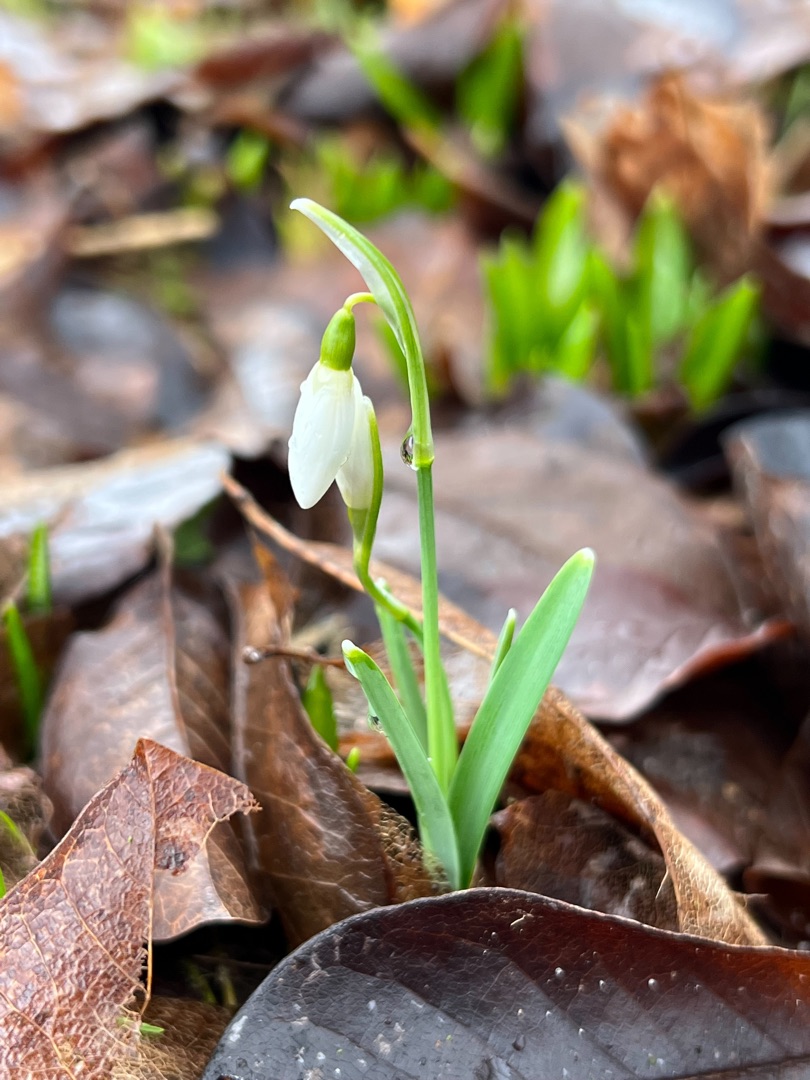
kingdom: Plantae
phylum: Tracheophyta
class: Liliopsida
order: Asparagales
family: Amaryllidaceae
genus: Galanthus
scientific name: Galanthus nivalis
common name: Vintergæk
